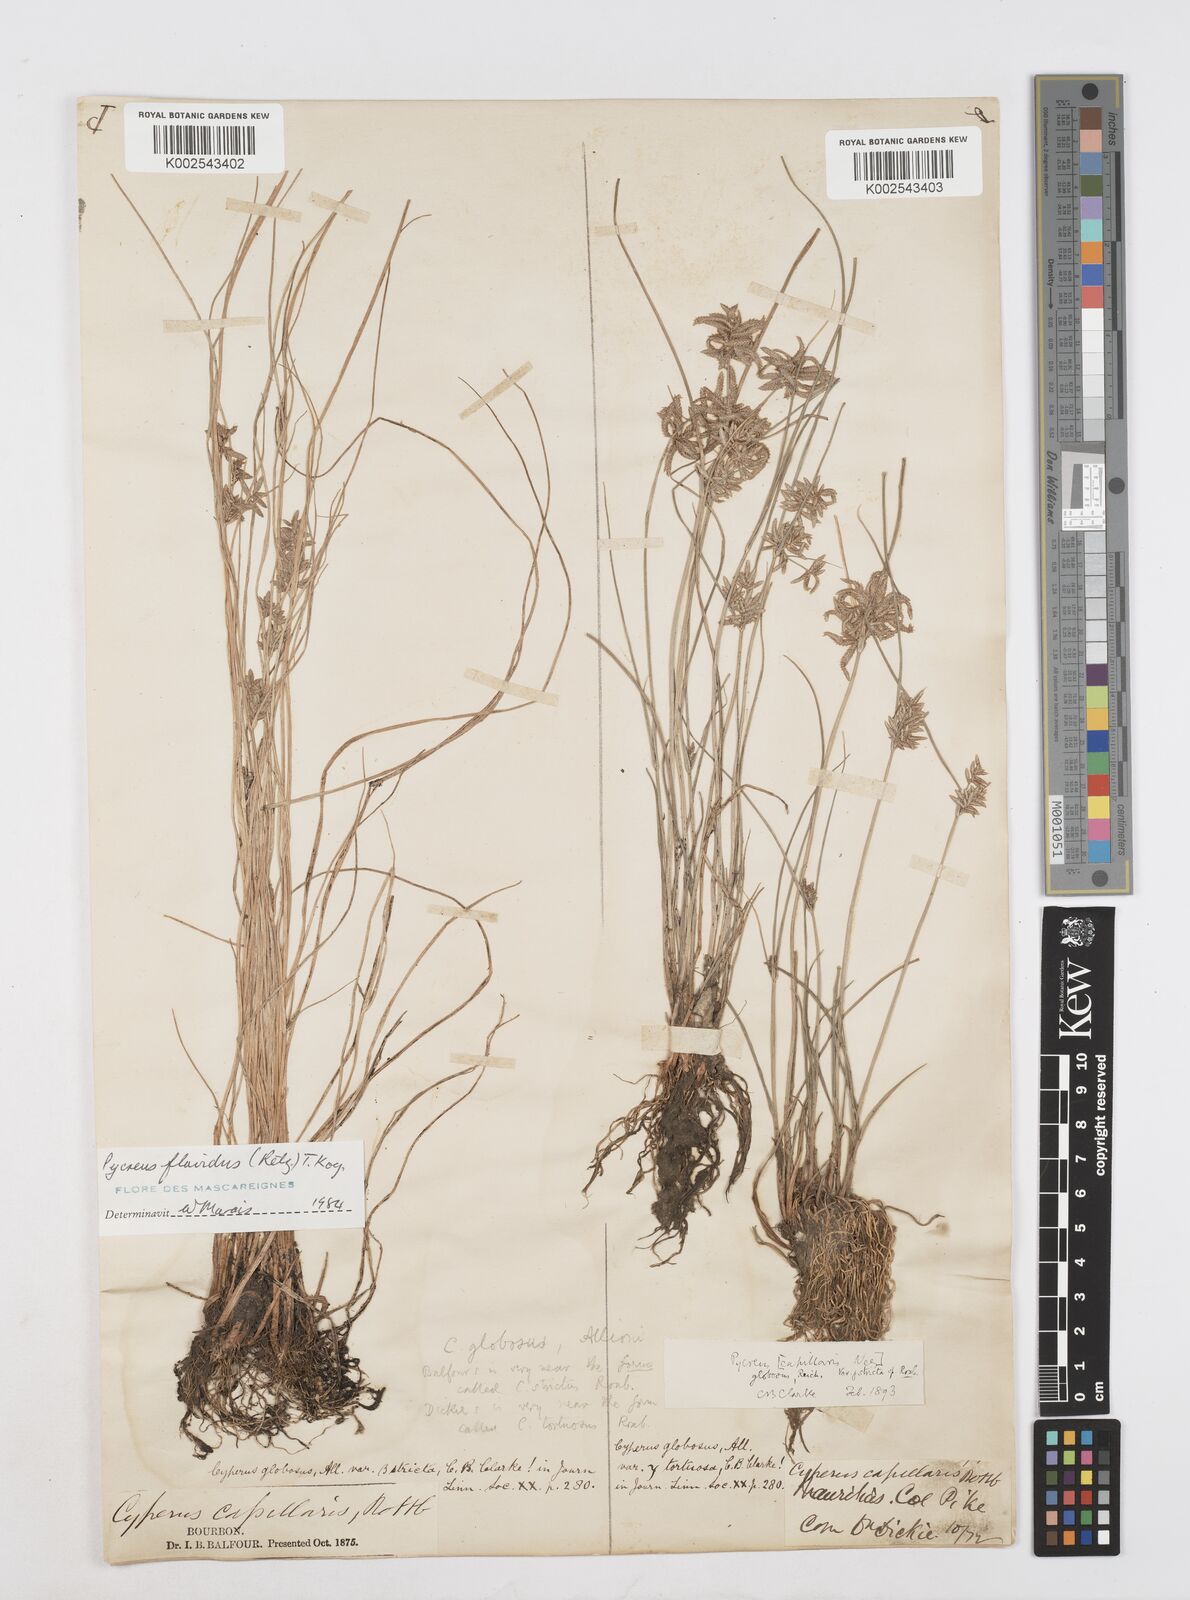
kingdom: Plantae
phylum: Tracheophyta
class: Liliopsida
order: Poales
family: Cyperaceae
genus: Cyperus
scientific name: Cyperus flavidus
